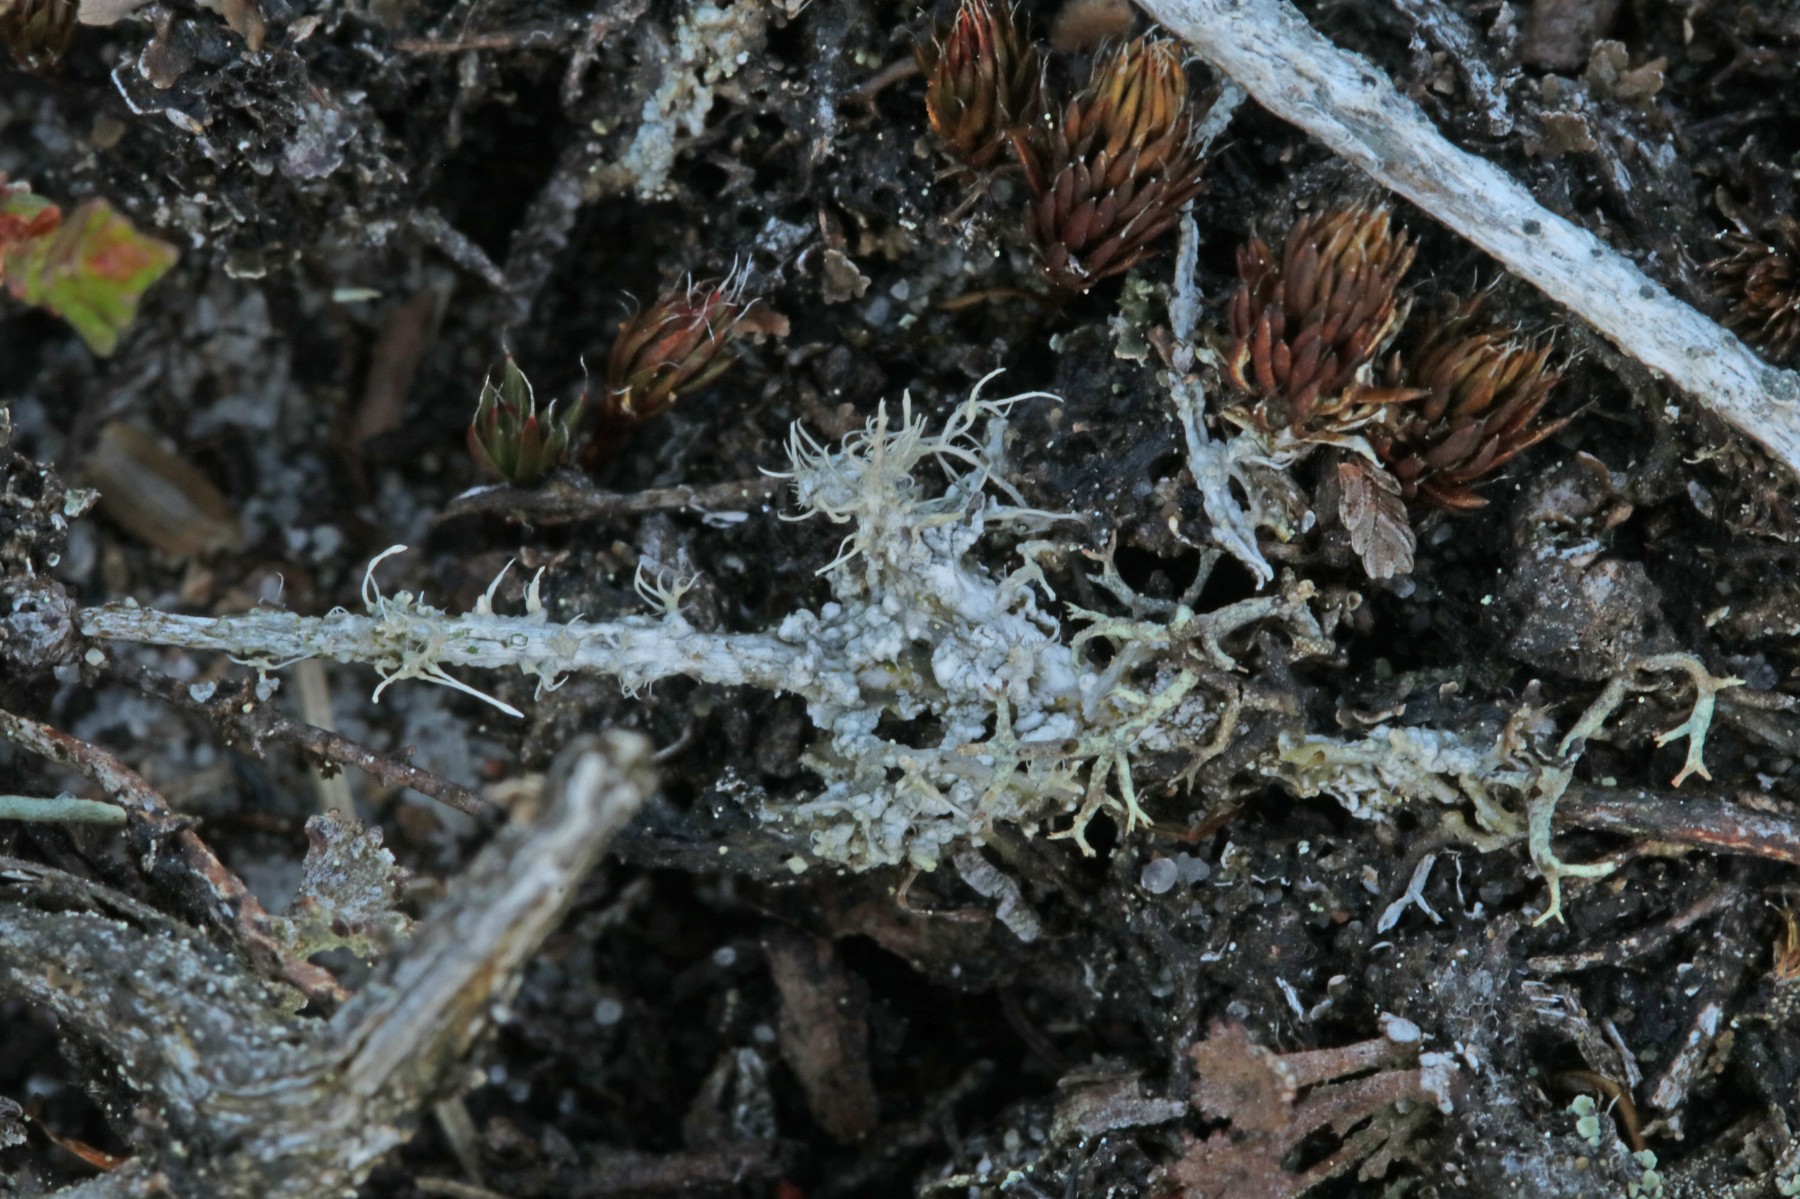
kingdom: Fungi
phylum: Ascomycota
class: Lecanoromycetes
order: Pertusariales
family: Ochrolechiaceae
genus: Ochrolechia
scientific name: Ochrolechia frigida
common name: fjeld-blegskivelav
